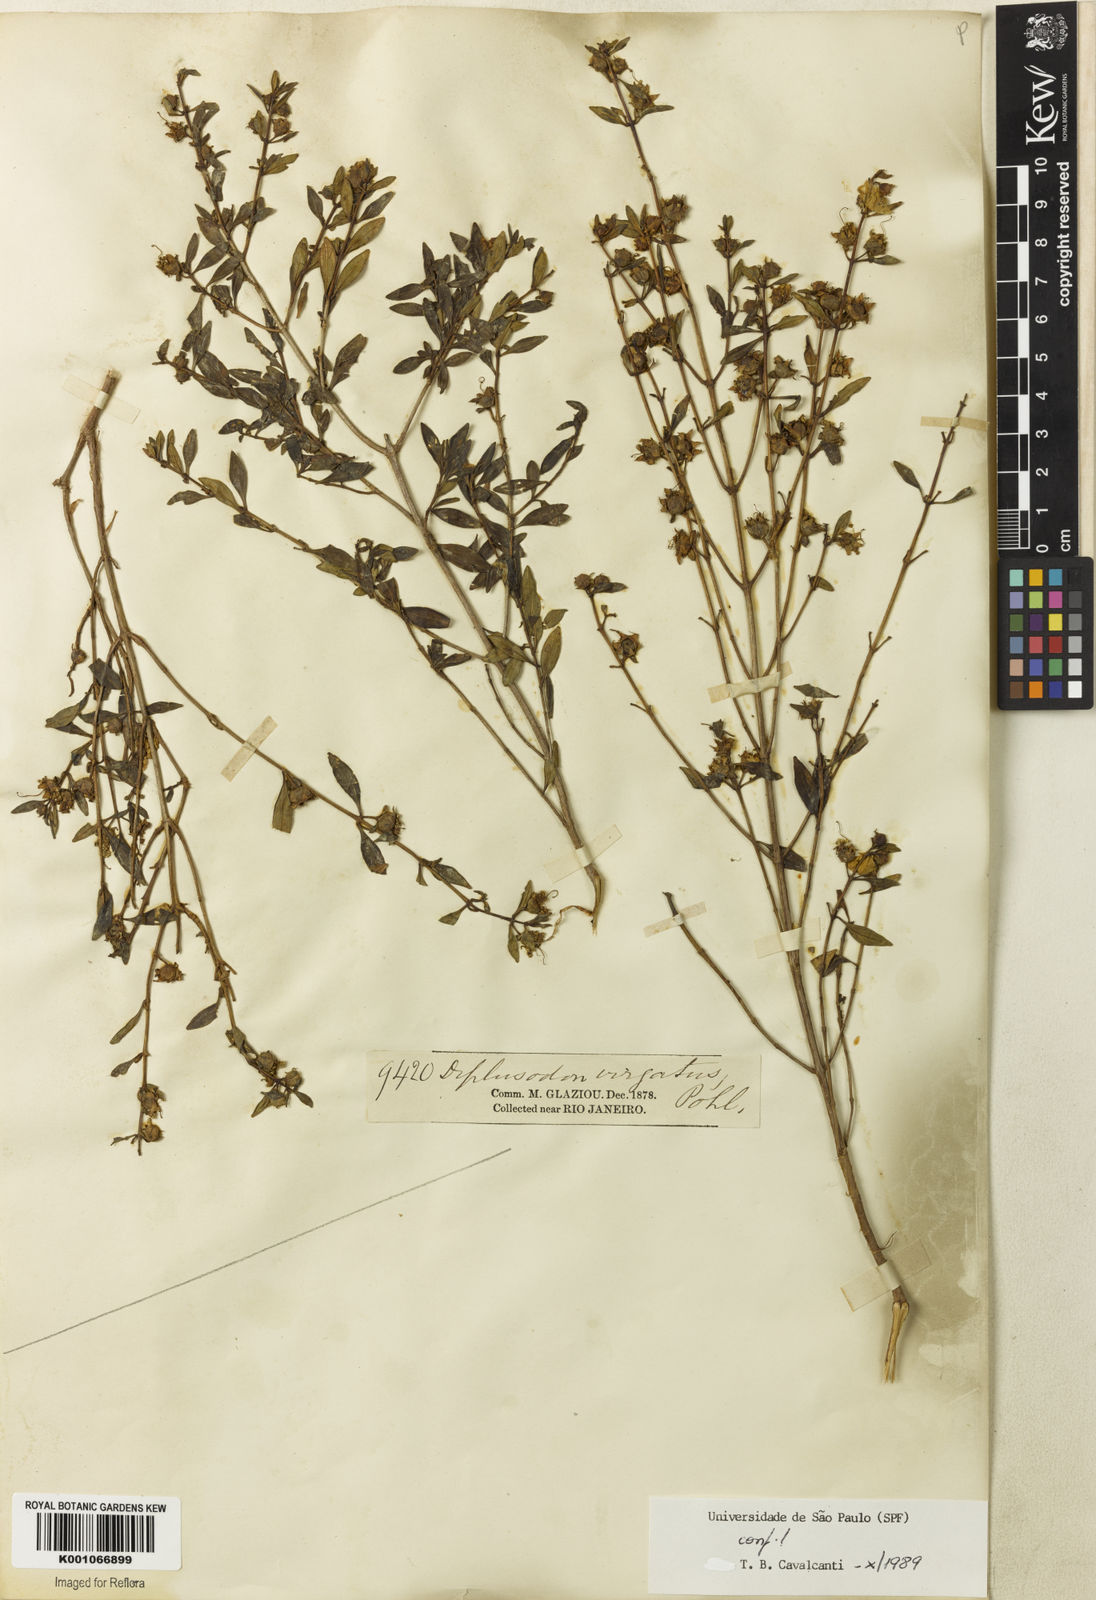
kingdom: Plantae
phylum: Tracheophyta
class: Magnoliopsida
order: Myrtales
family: Lythraceae
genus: Diplusodon
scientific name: Diplusodon virgatus
